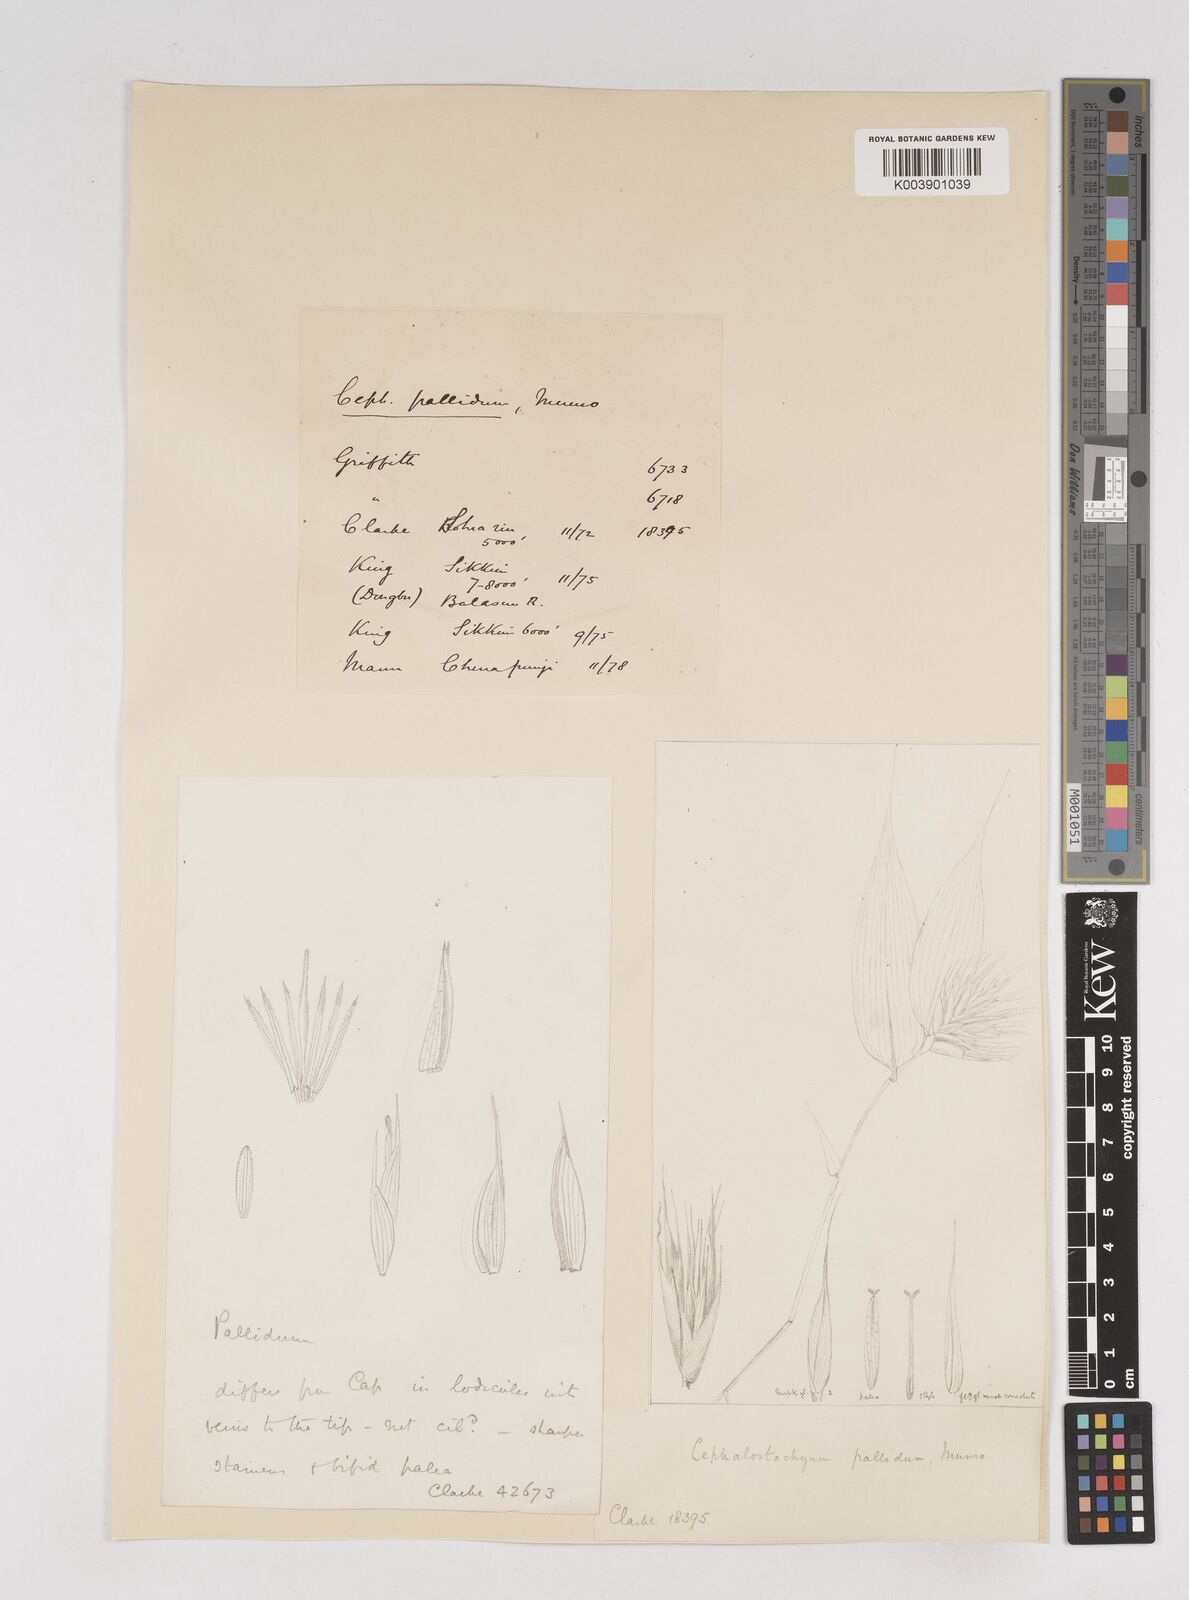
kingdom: Plantae
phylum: Tracheophyta
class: Liliopsida
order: Poales
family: Poaceae
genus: Cephalostachyum
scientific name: Cephalostachyum pallidum
